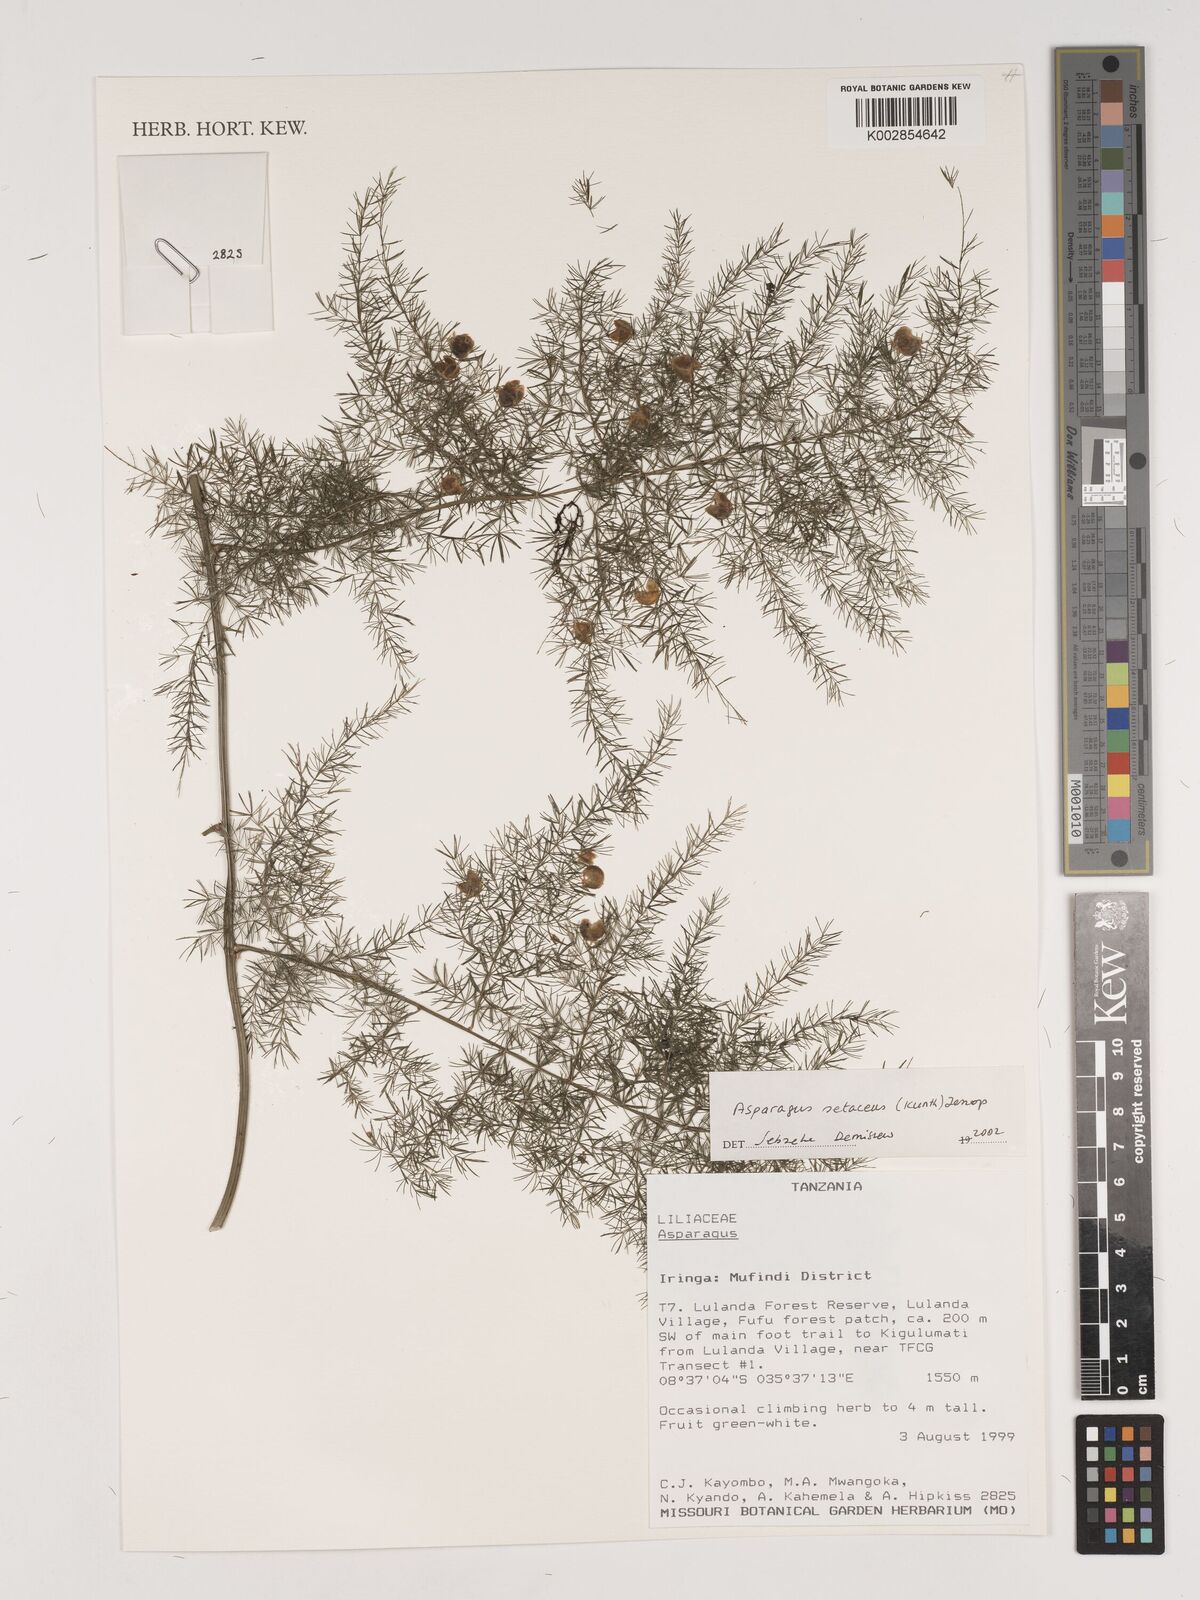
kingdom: Plantae
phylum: Tracheophyta
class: Liliopsida
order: Asparagales
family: Asparagaceae
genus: Asparagus
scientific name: Asparagus setaceus
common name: Common asparagus fern
